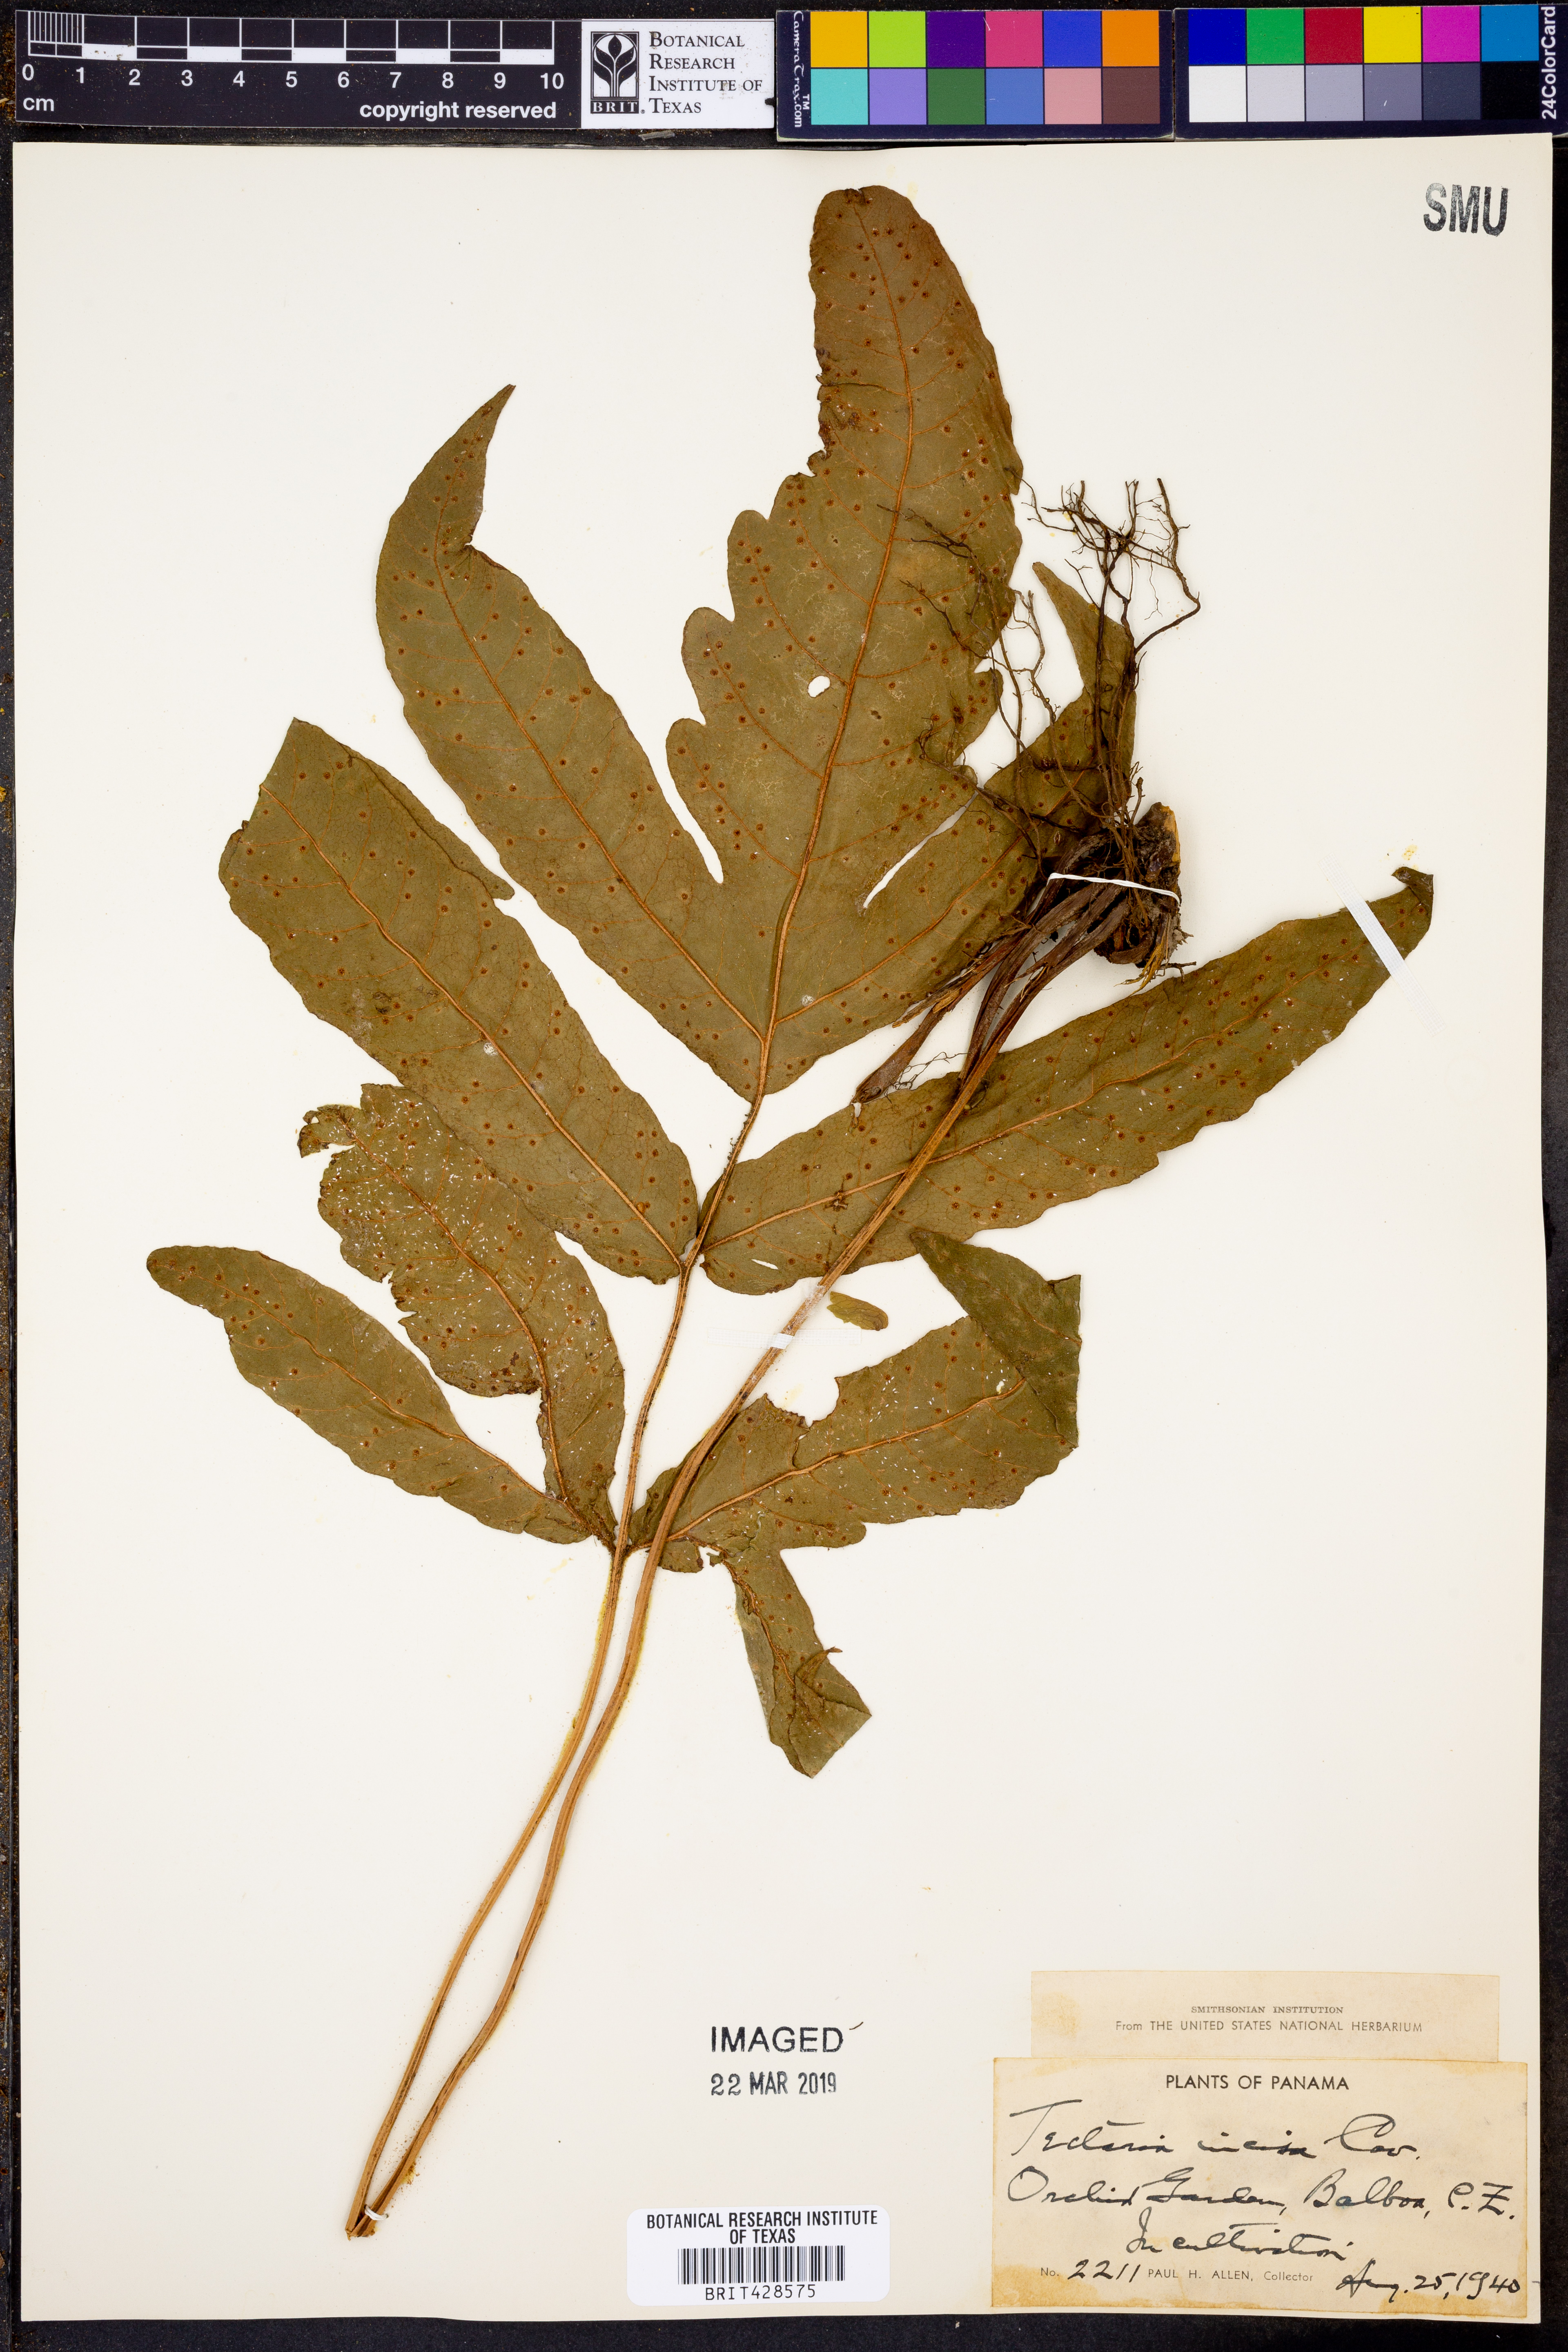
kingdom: Plantae
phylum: Tracheophyta
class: Polypodiopsida
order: Polypodiales
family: Tectariaceae
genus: Tectaria
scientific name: Tectaria incisa
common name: Incised halberd fern
